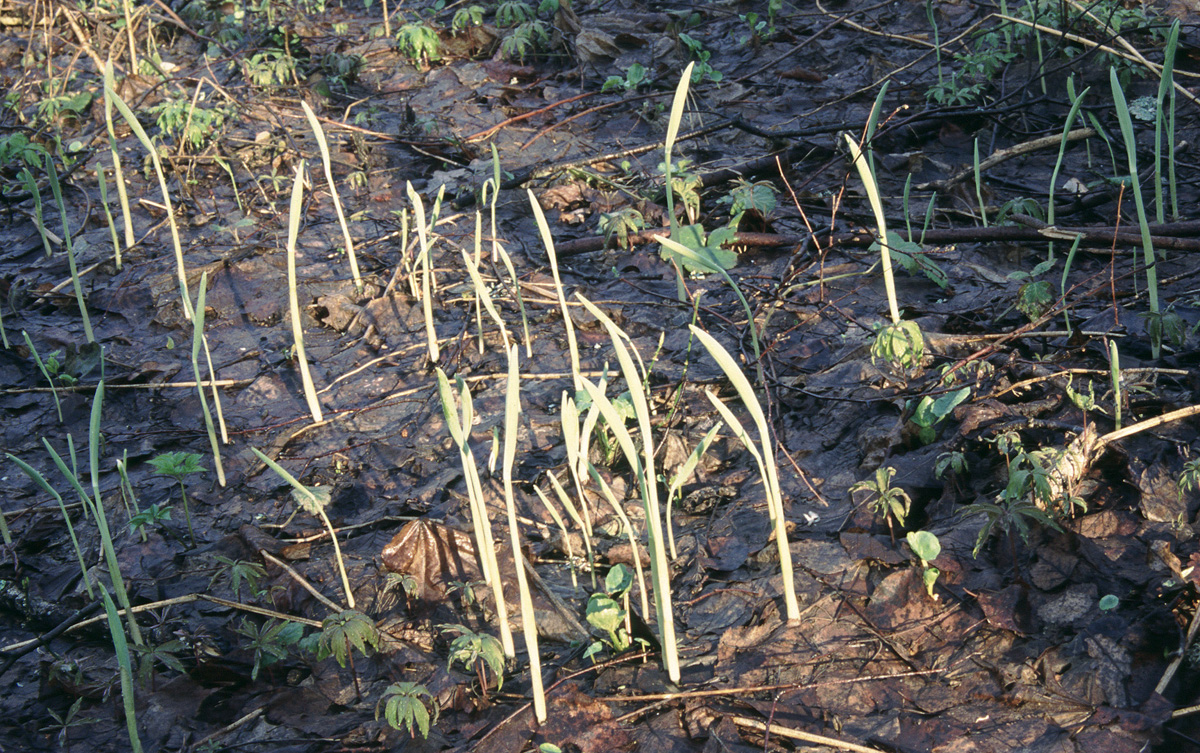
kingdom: Plantae
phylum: Tracheophyta
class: Liliopsida
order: Asparagales
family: Asparagaceae
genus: Polygonatum
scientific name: Polygonatum
